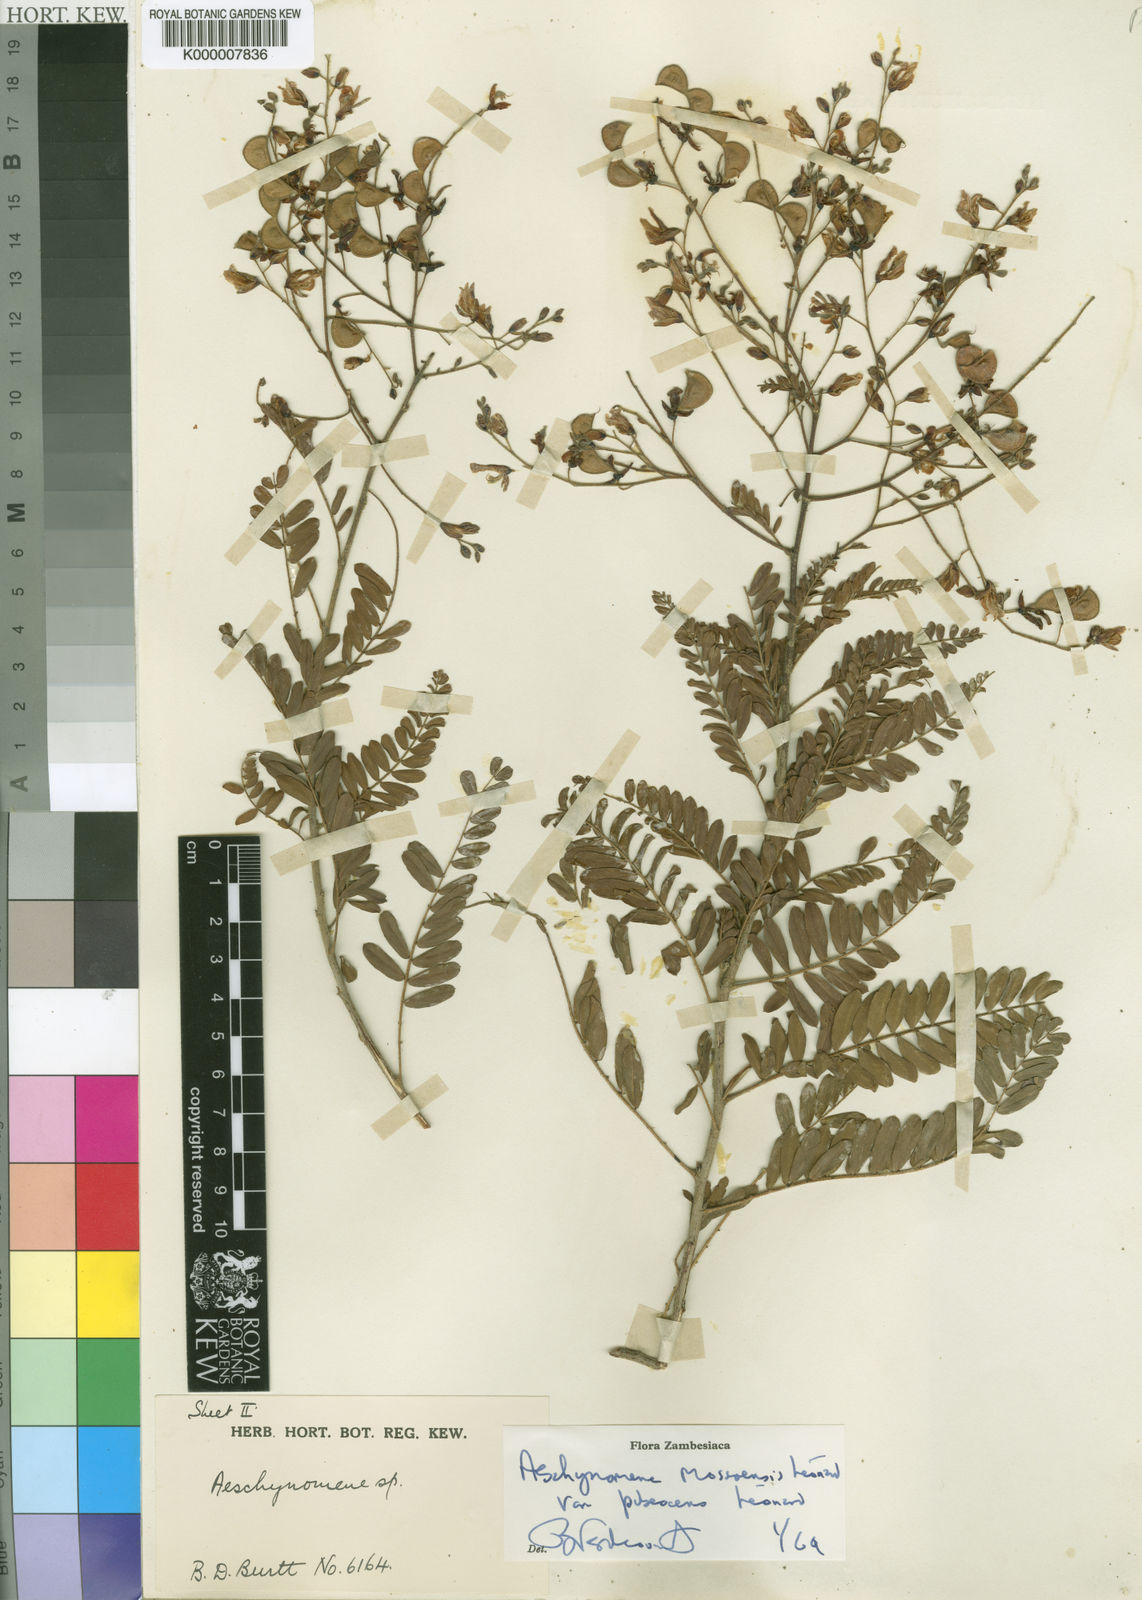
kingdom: Plantae
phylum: Tracheophyta
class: Magnoliopsida
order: Fabales
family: Fabaceae
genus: Aeschynomene
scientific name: Aeschynomene mossoensis
